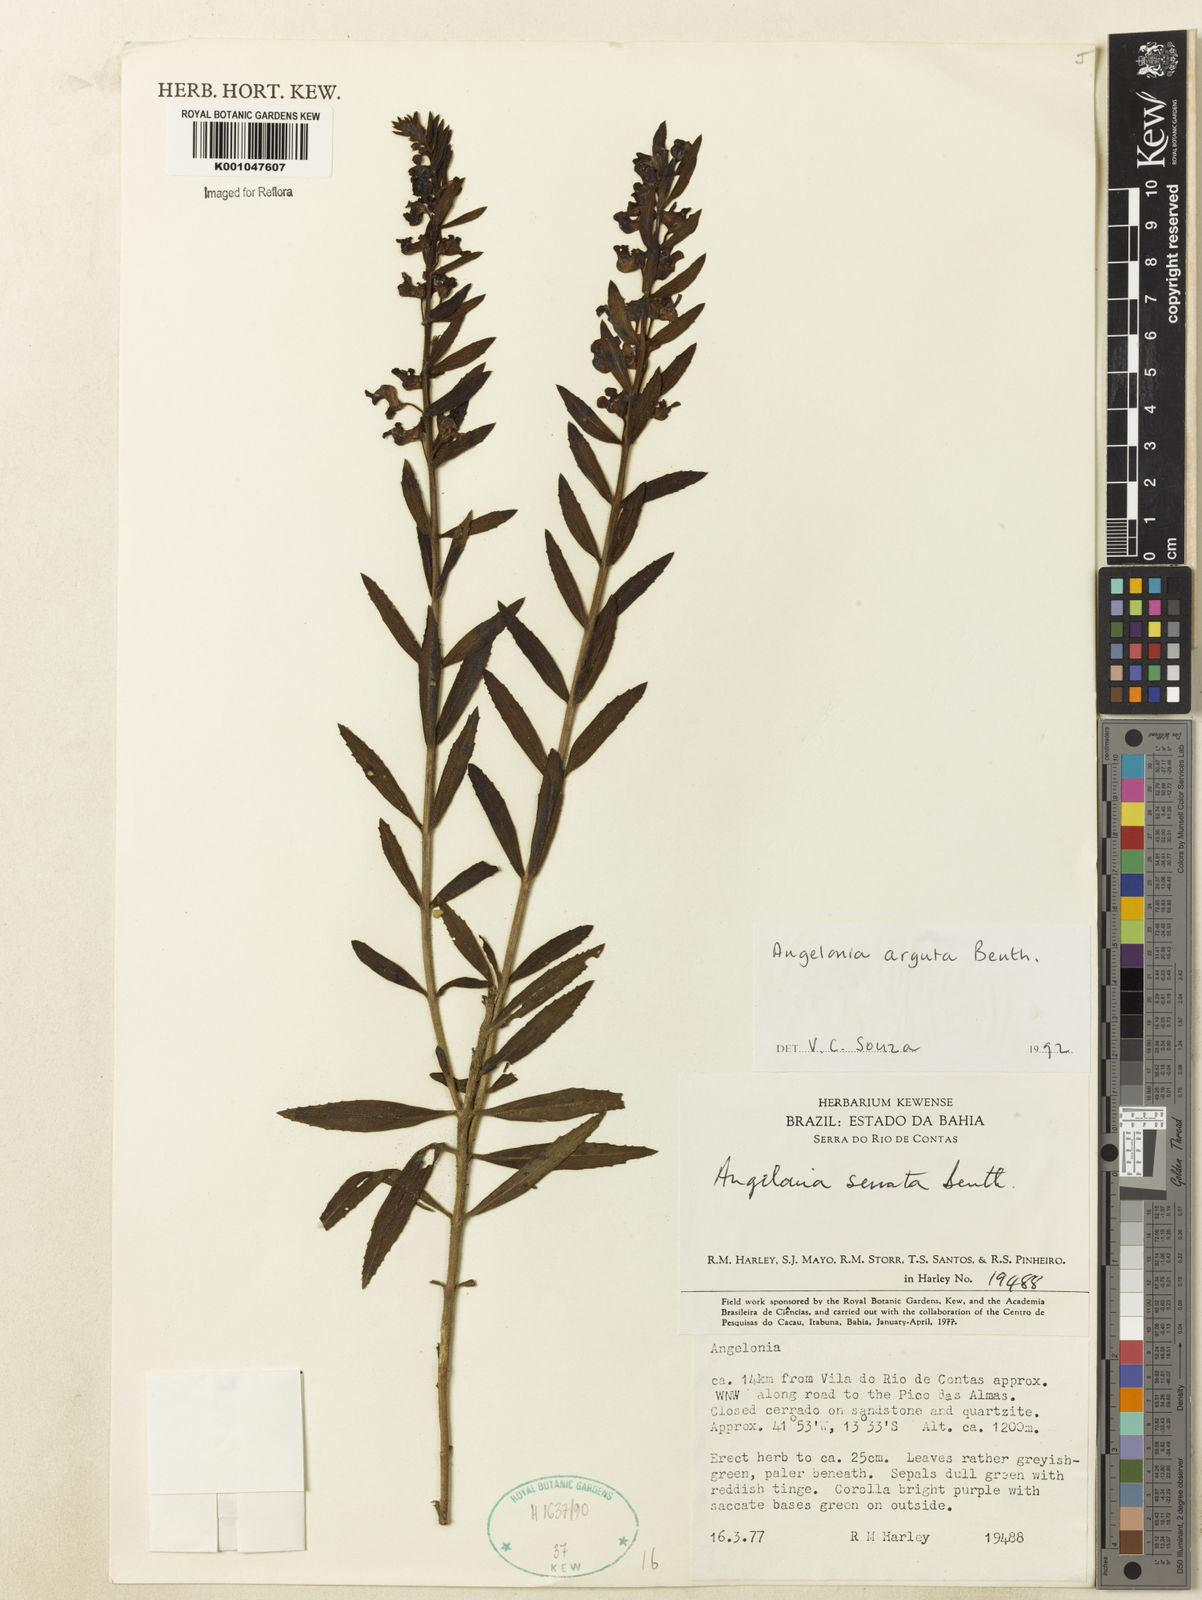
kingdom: Plantae
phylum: Tracheophyta
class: Magnoliopsida
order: Lamiales
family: Plantaginaceae
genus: Angelonia
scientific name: Angelonia arguta
